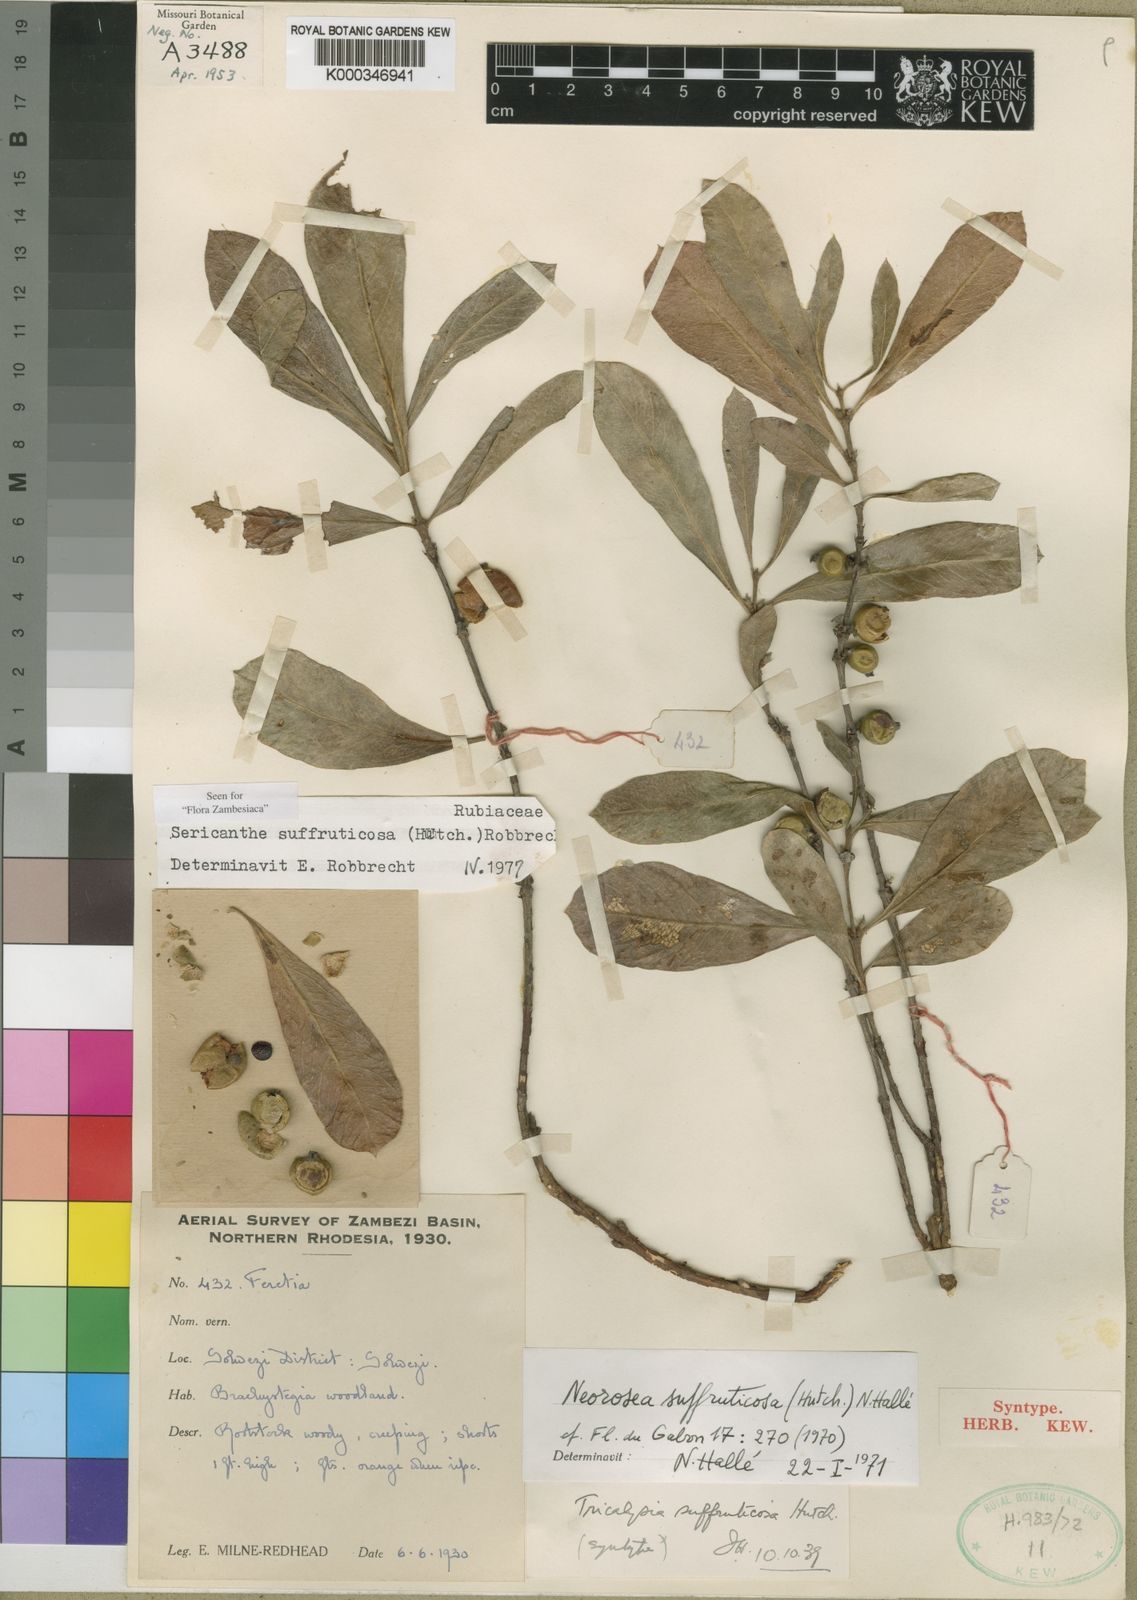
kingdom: Plantae
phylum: Tracheophyta
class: Magnoliopsida
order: Gentianales
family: Rubiaceae
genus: Sericanthe
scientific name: Sericanthe suffruticosa
